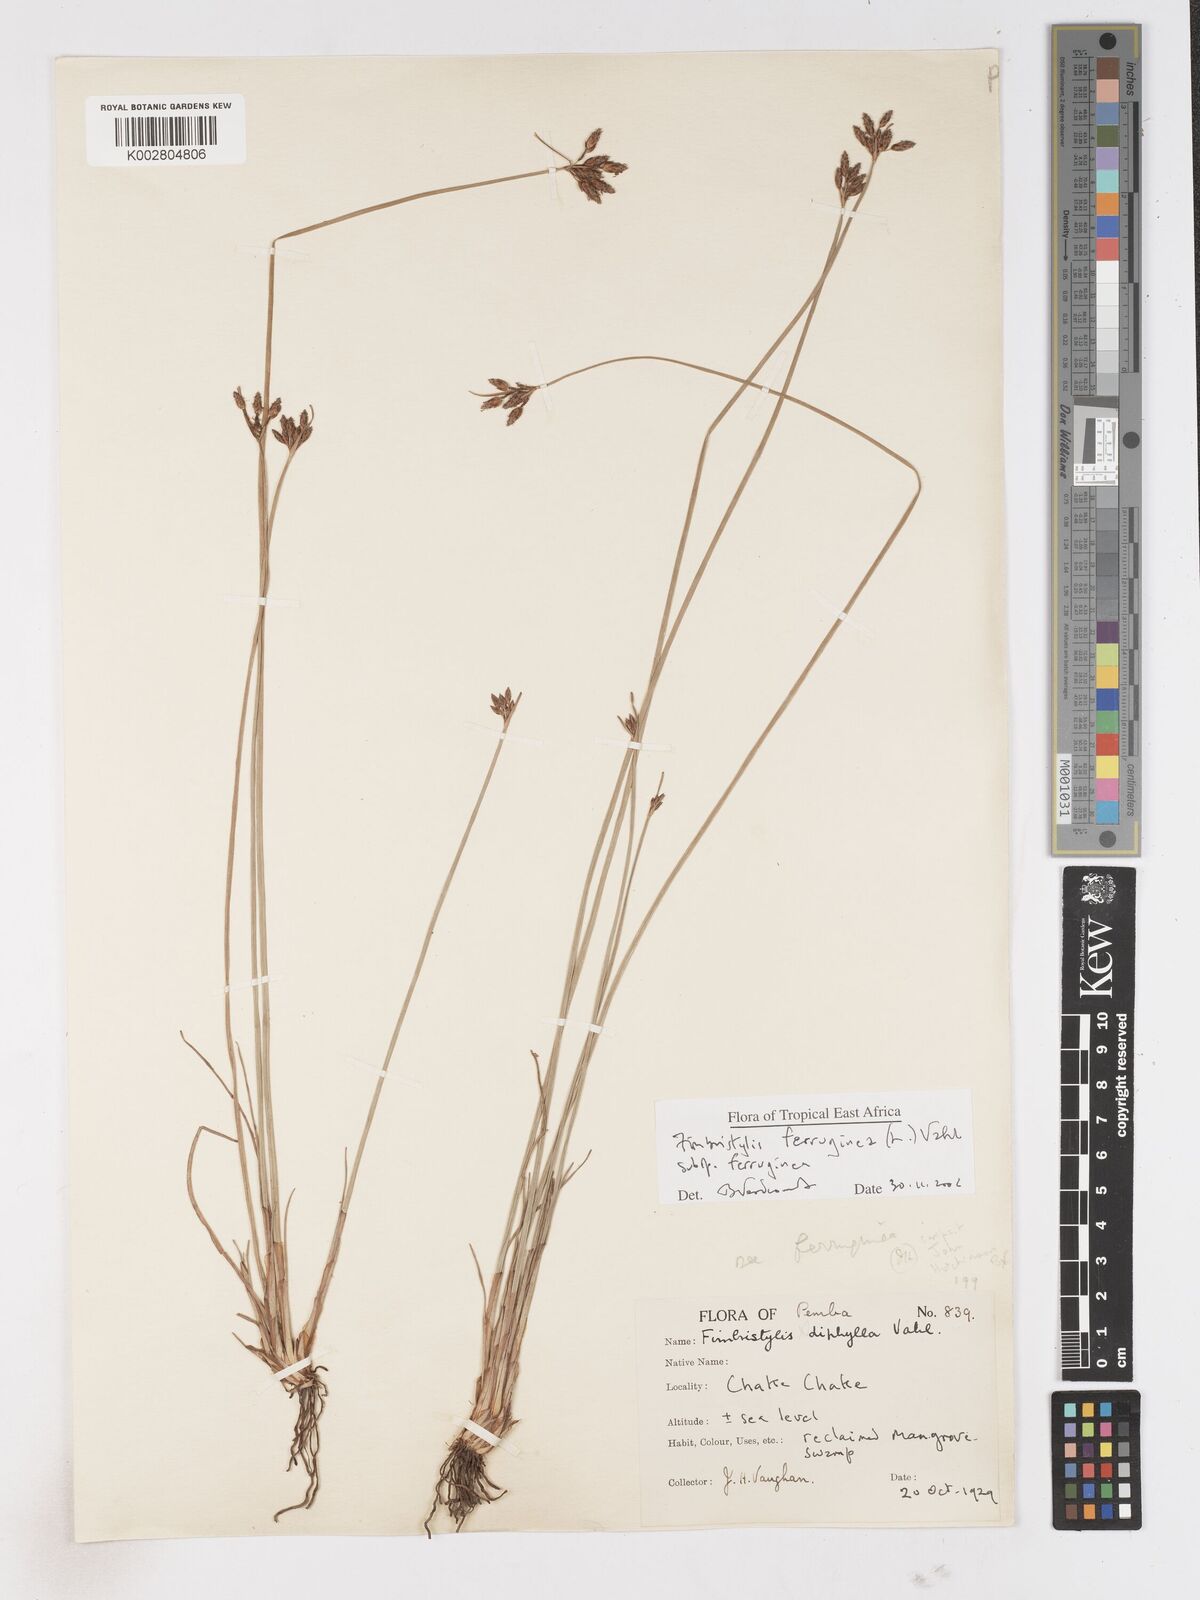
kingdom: Plantae
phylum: Tracheophyta
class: Liliopsida
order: Poales
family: Cyperaceae
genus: Fimbristylis
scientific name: Fimbristylis ferruginea
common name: West indian fimbry
